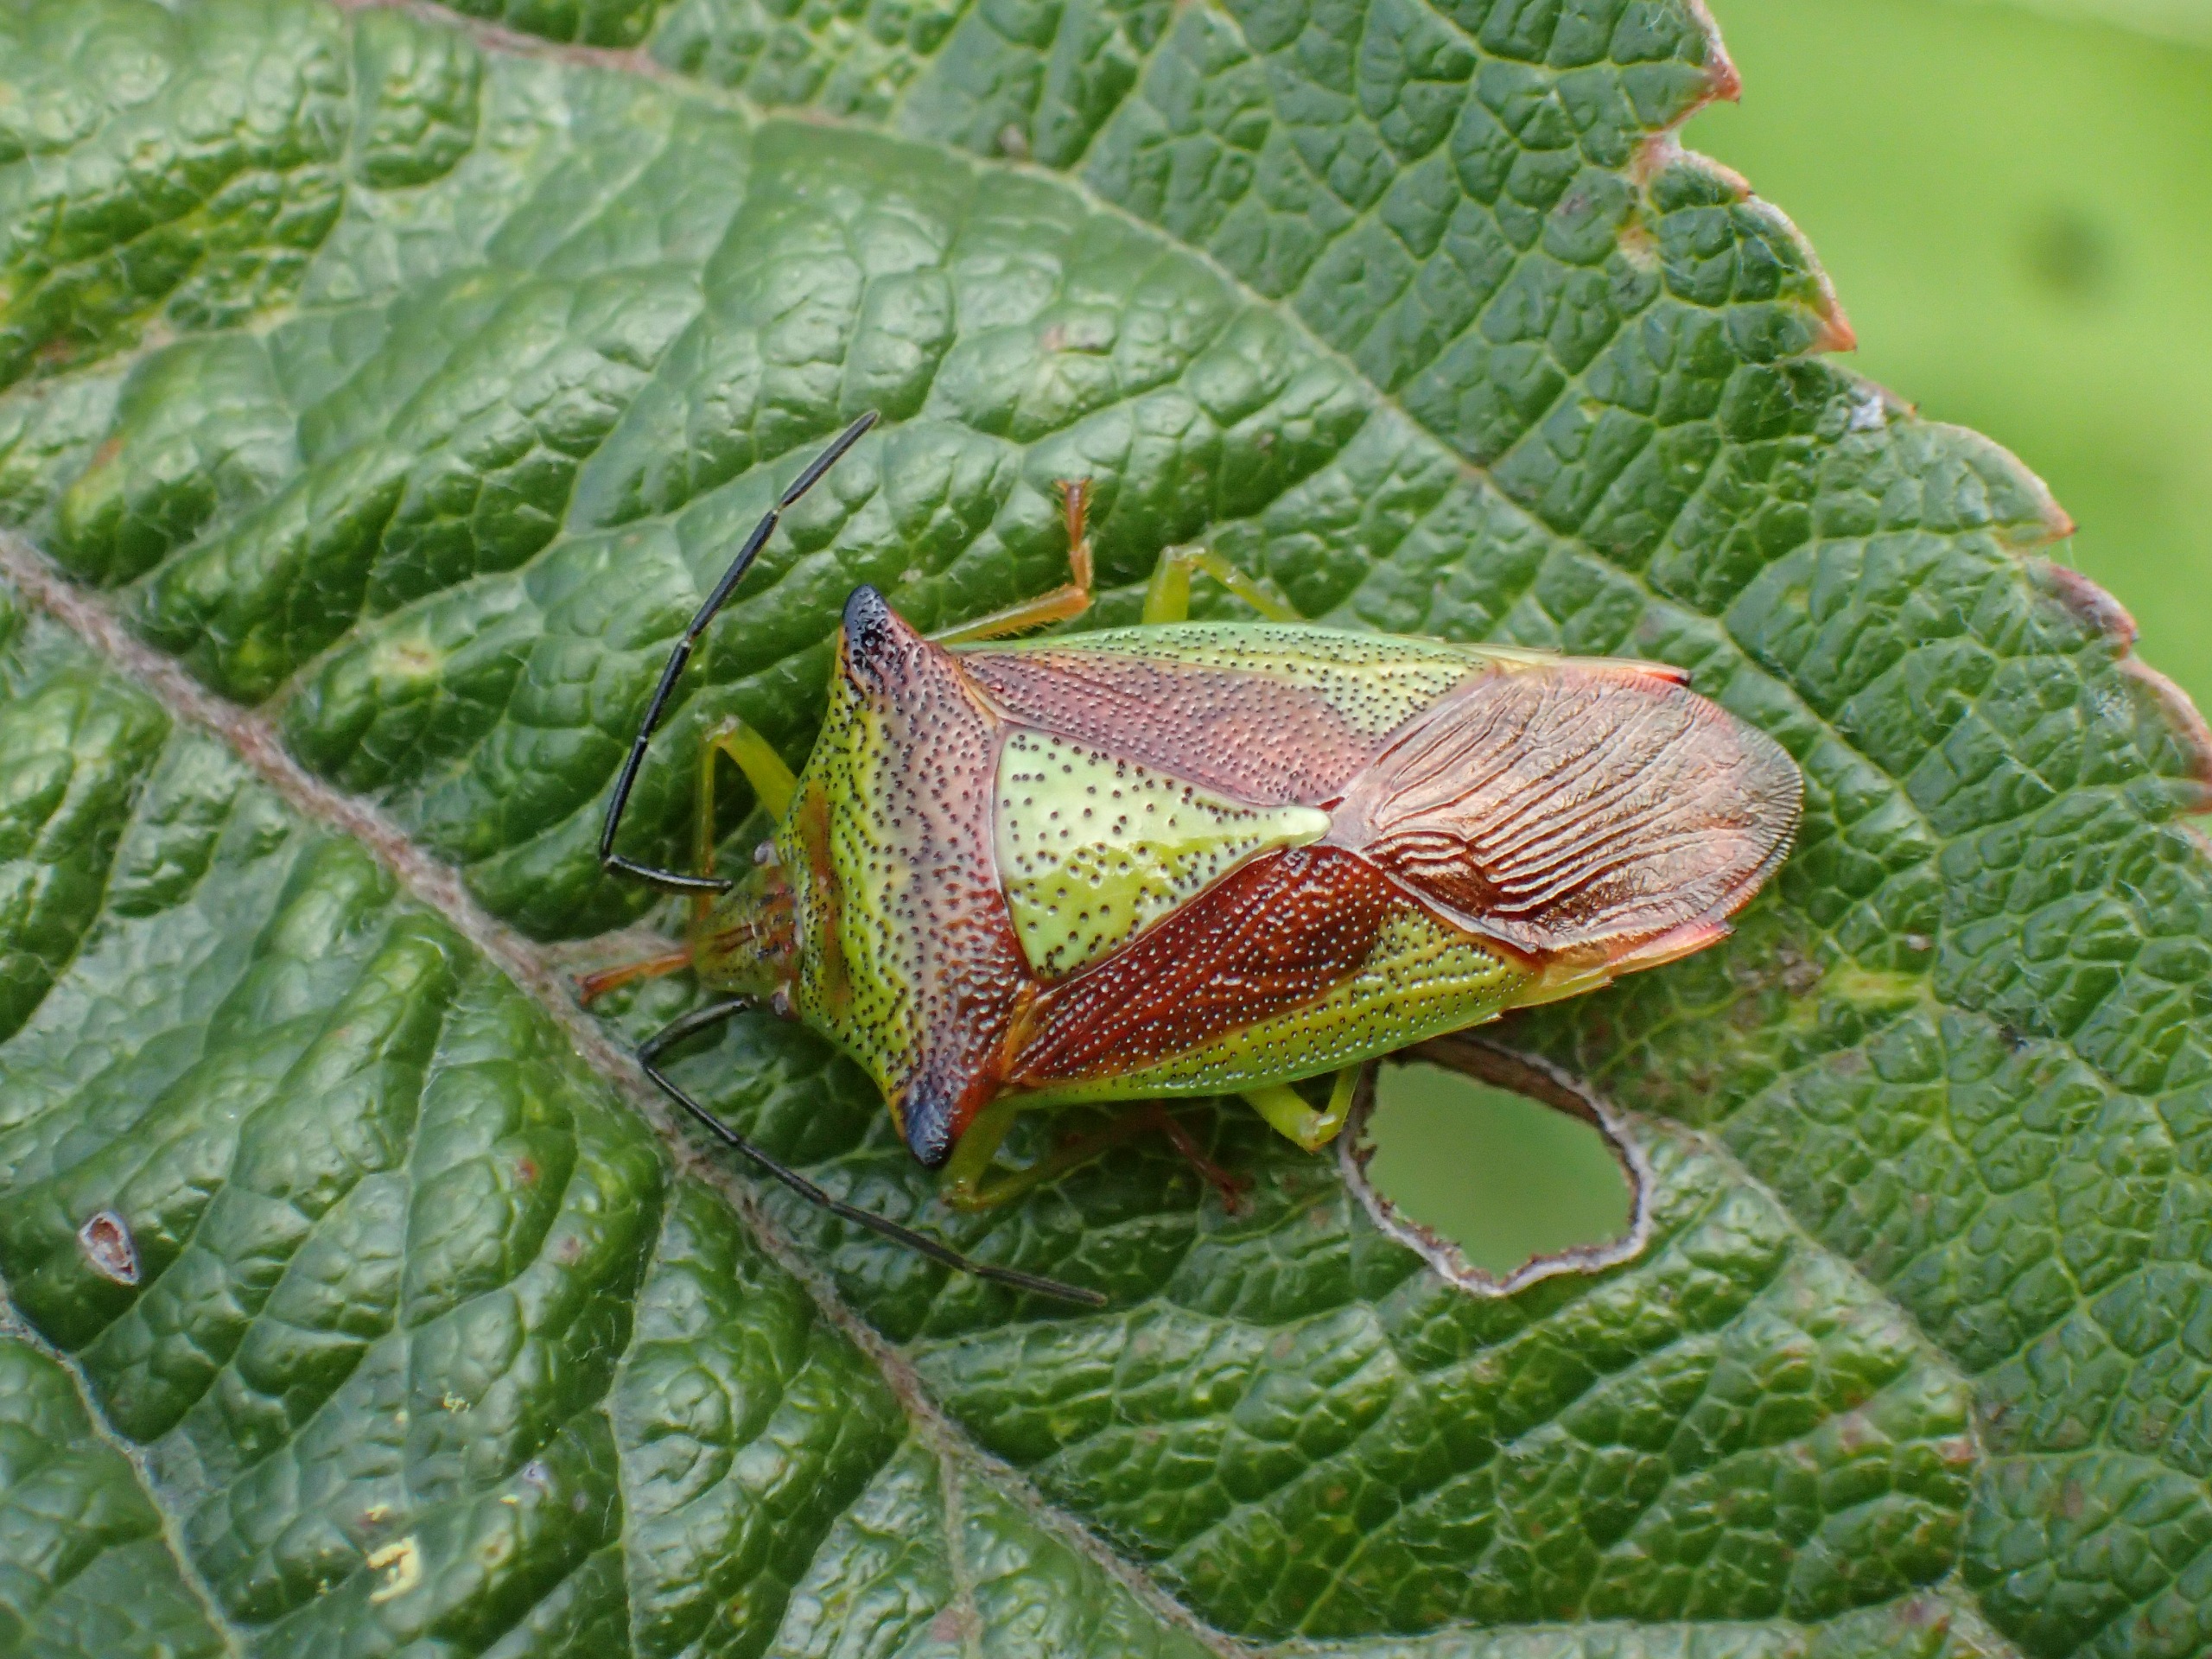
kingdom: Animalia
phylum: Arthropoda
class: Insecta
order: Hemiptera
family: Acanthosomatidae
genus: Acanthosoma
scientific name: Acanthosoma haemorrhoidale
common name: Stor løvtæge
